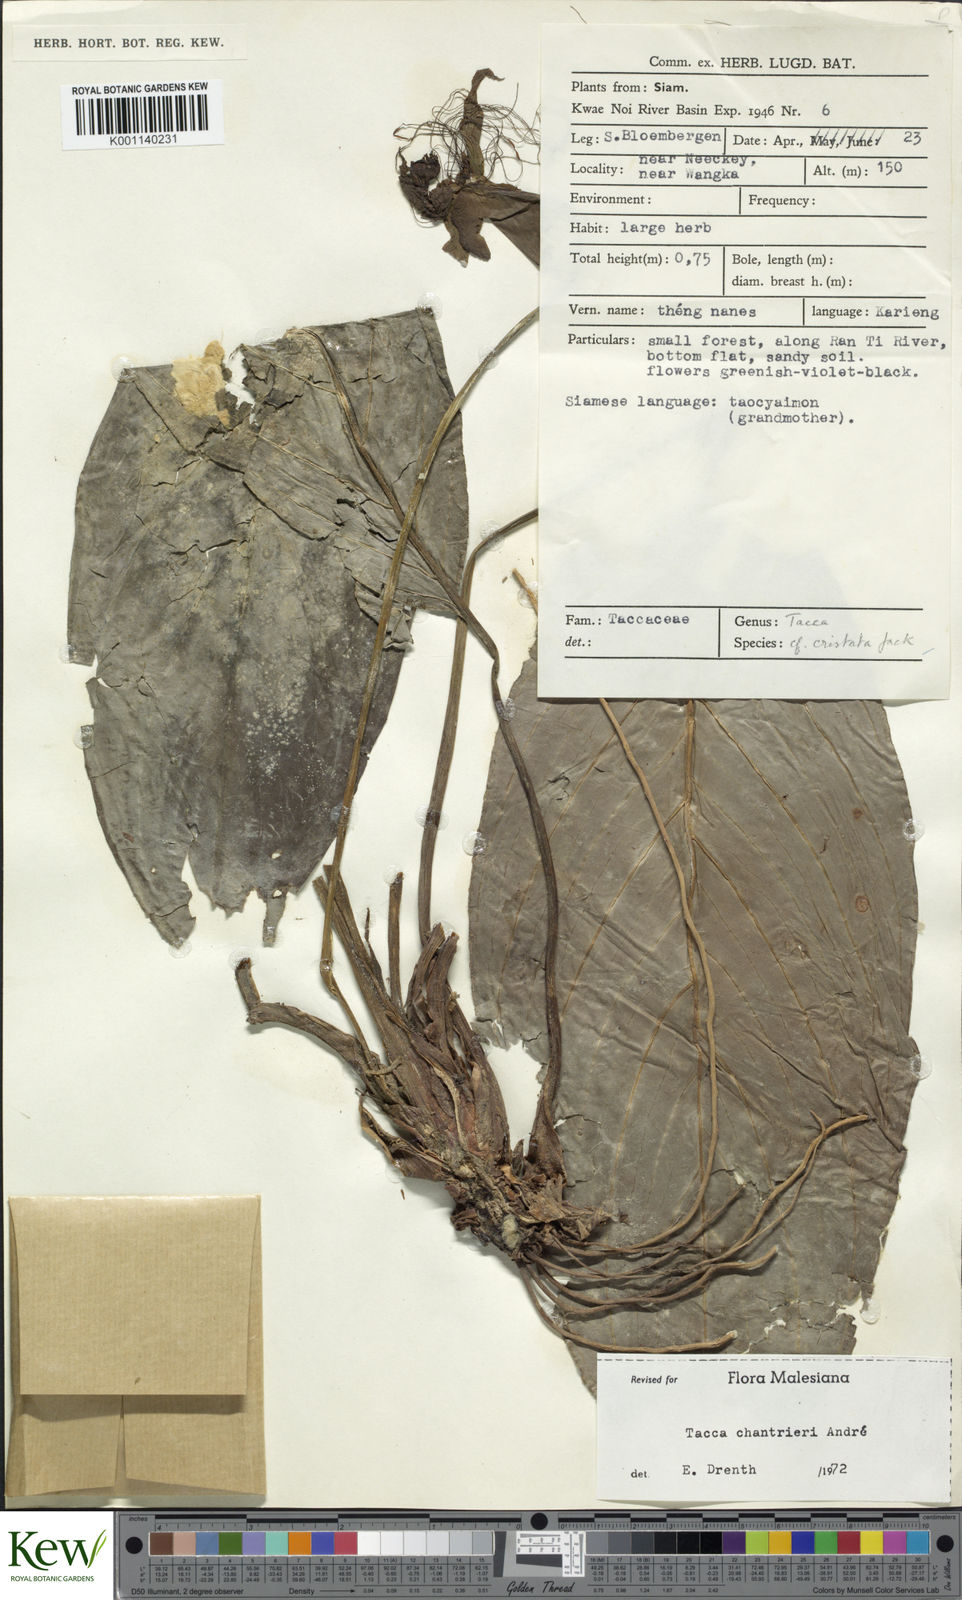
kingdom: Plantae
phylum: Tracheophyta
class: Liliopsida
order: Dioscoreales
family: Dioscoreaceae
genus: Tacca
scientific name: Tacca
